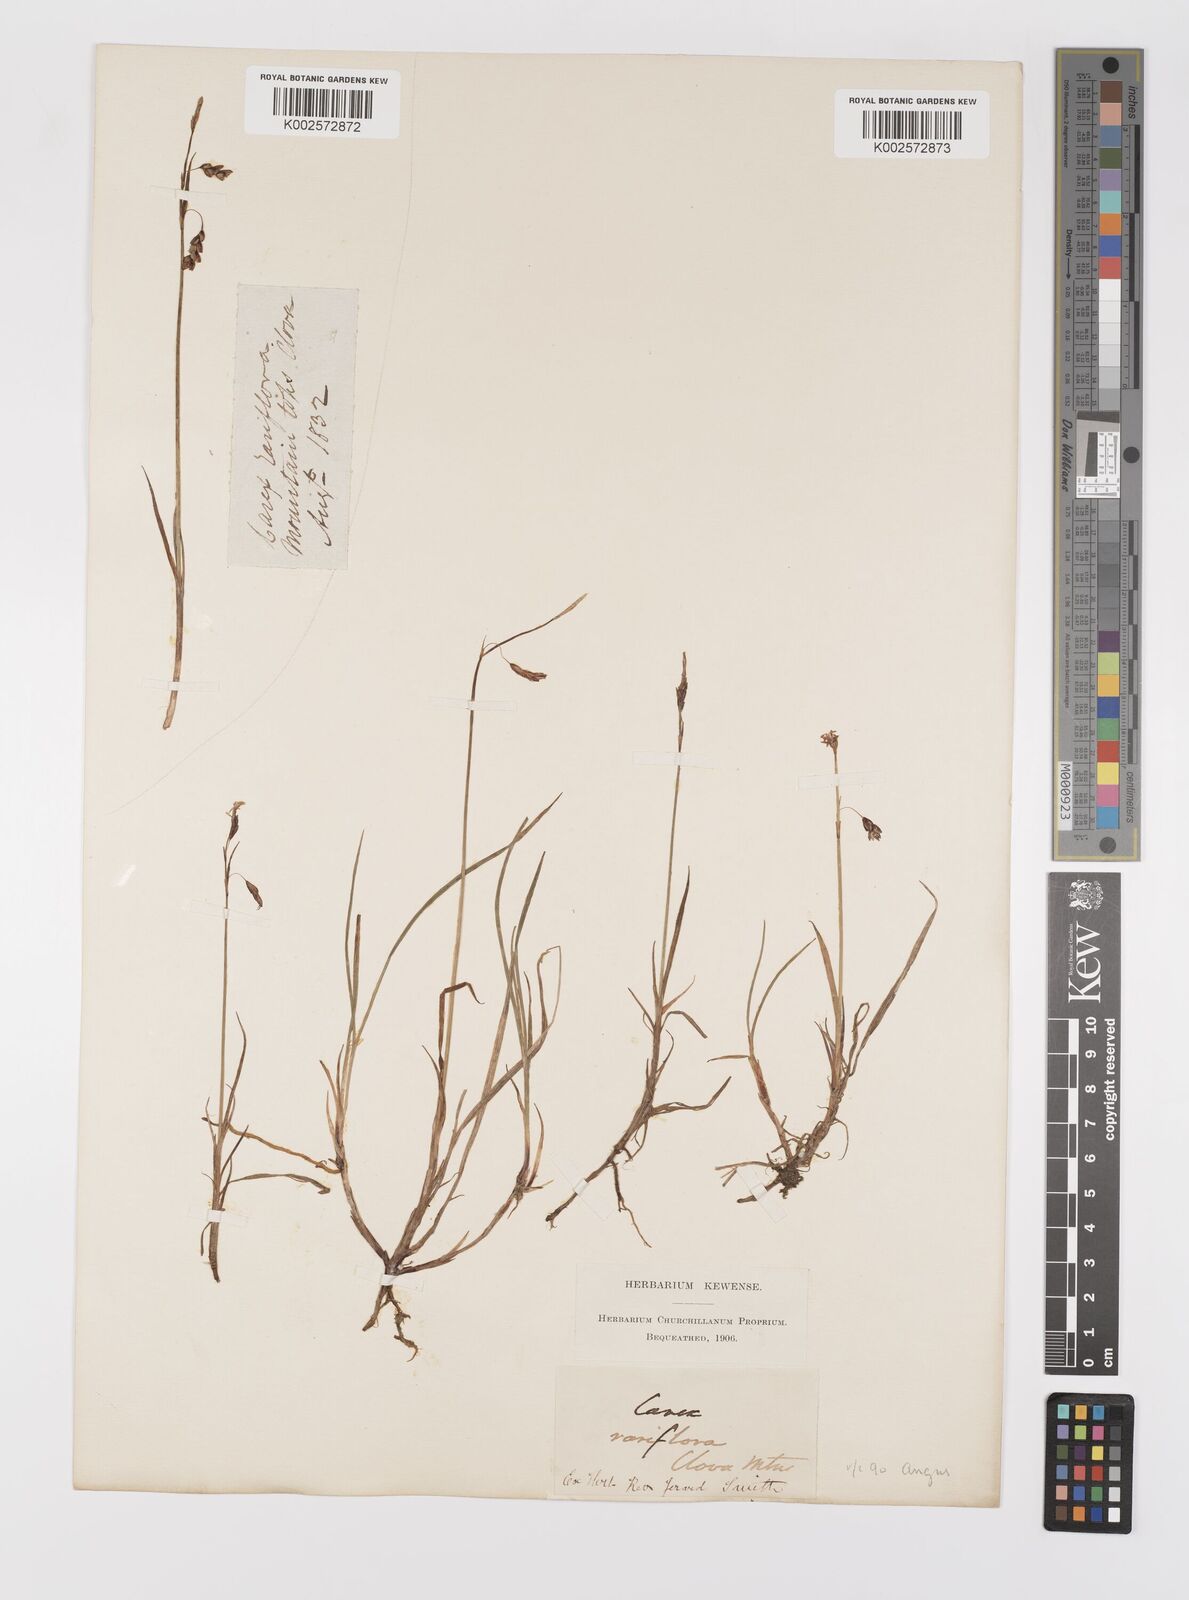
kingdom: Plantae
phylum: Tracheophyta
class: Liliopsida
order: Poales
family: Cyperaceae
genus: Carex
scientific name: Carex rariflora
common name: Loose-flowered alpine sedge
